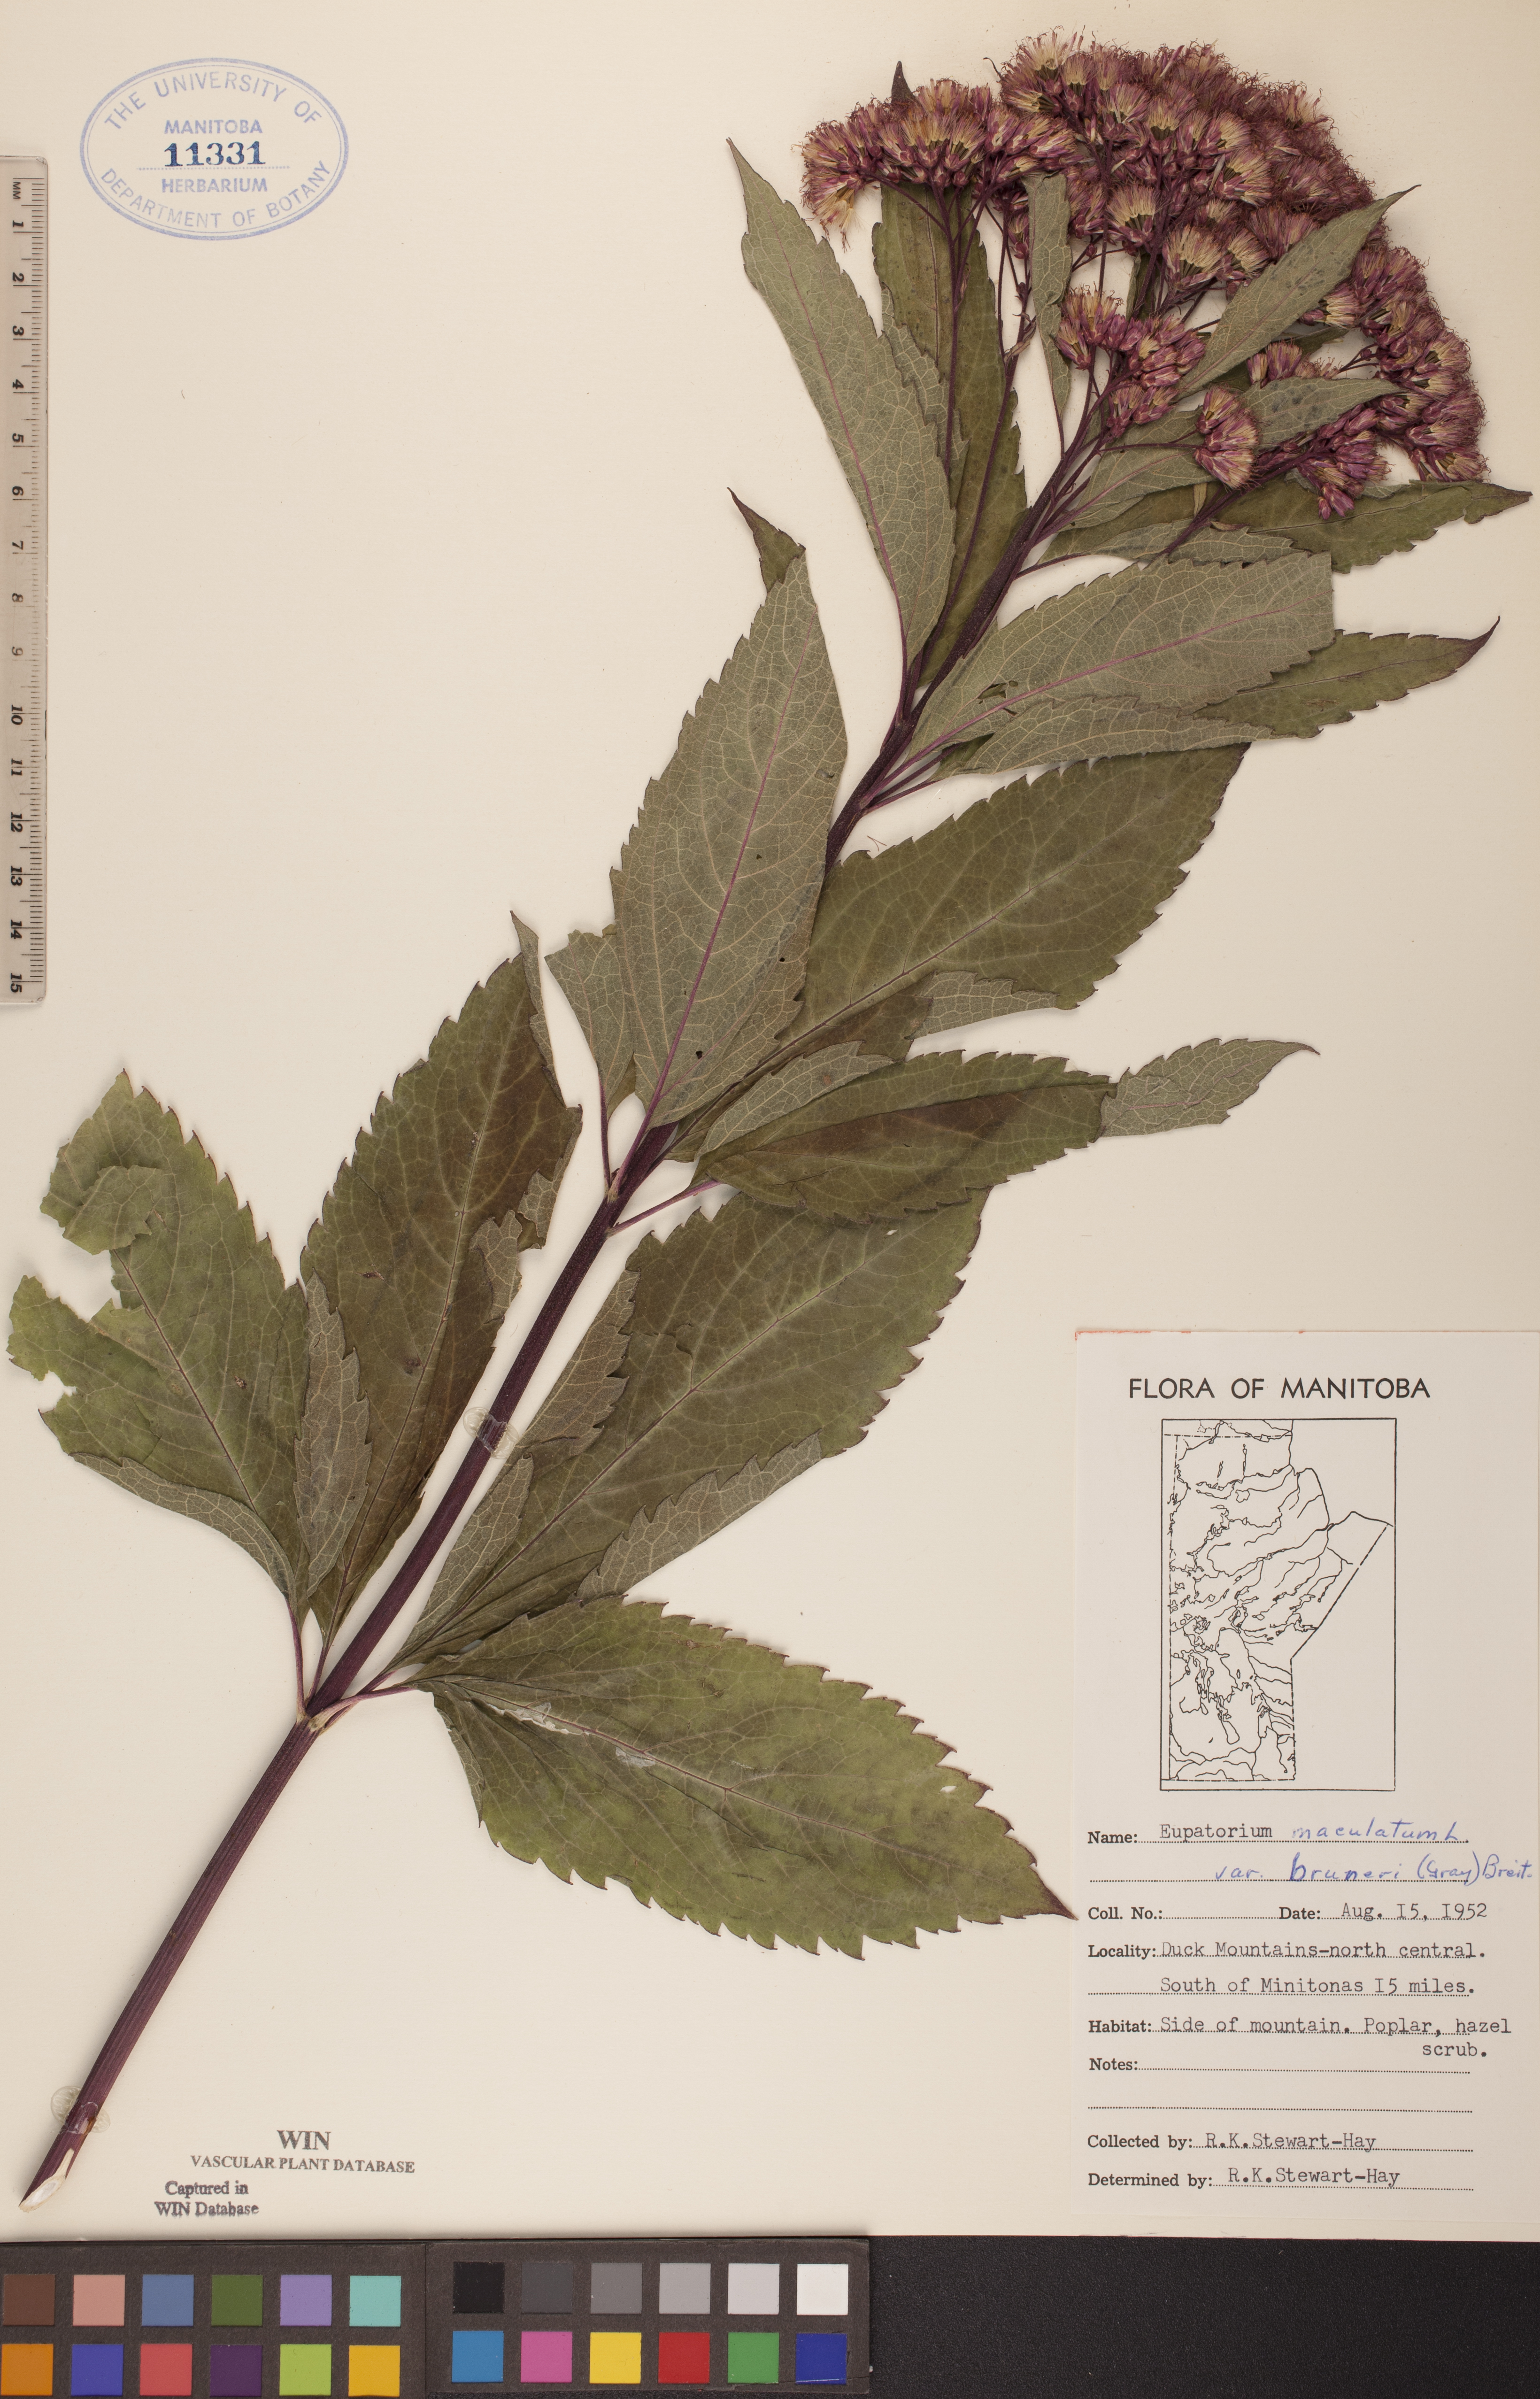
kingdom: Plantae
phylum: Tracheophyta
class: Magnoliopsida
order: Asterales
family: Asteraceae
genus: Eutrochium
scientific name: Eutrochium maculatum
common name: Spotted joe pye weed
